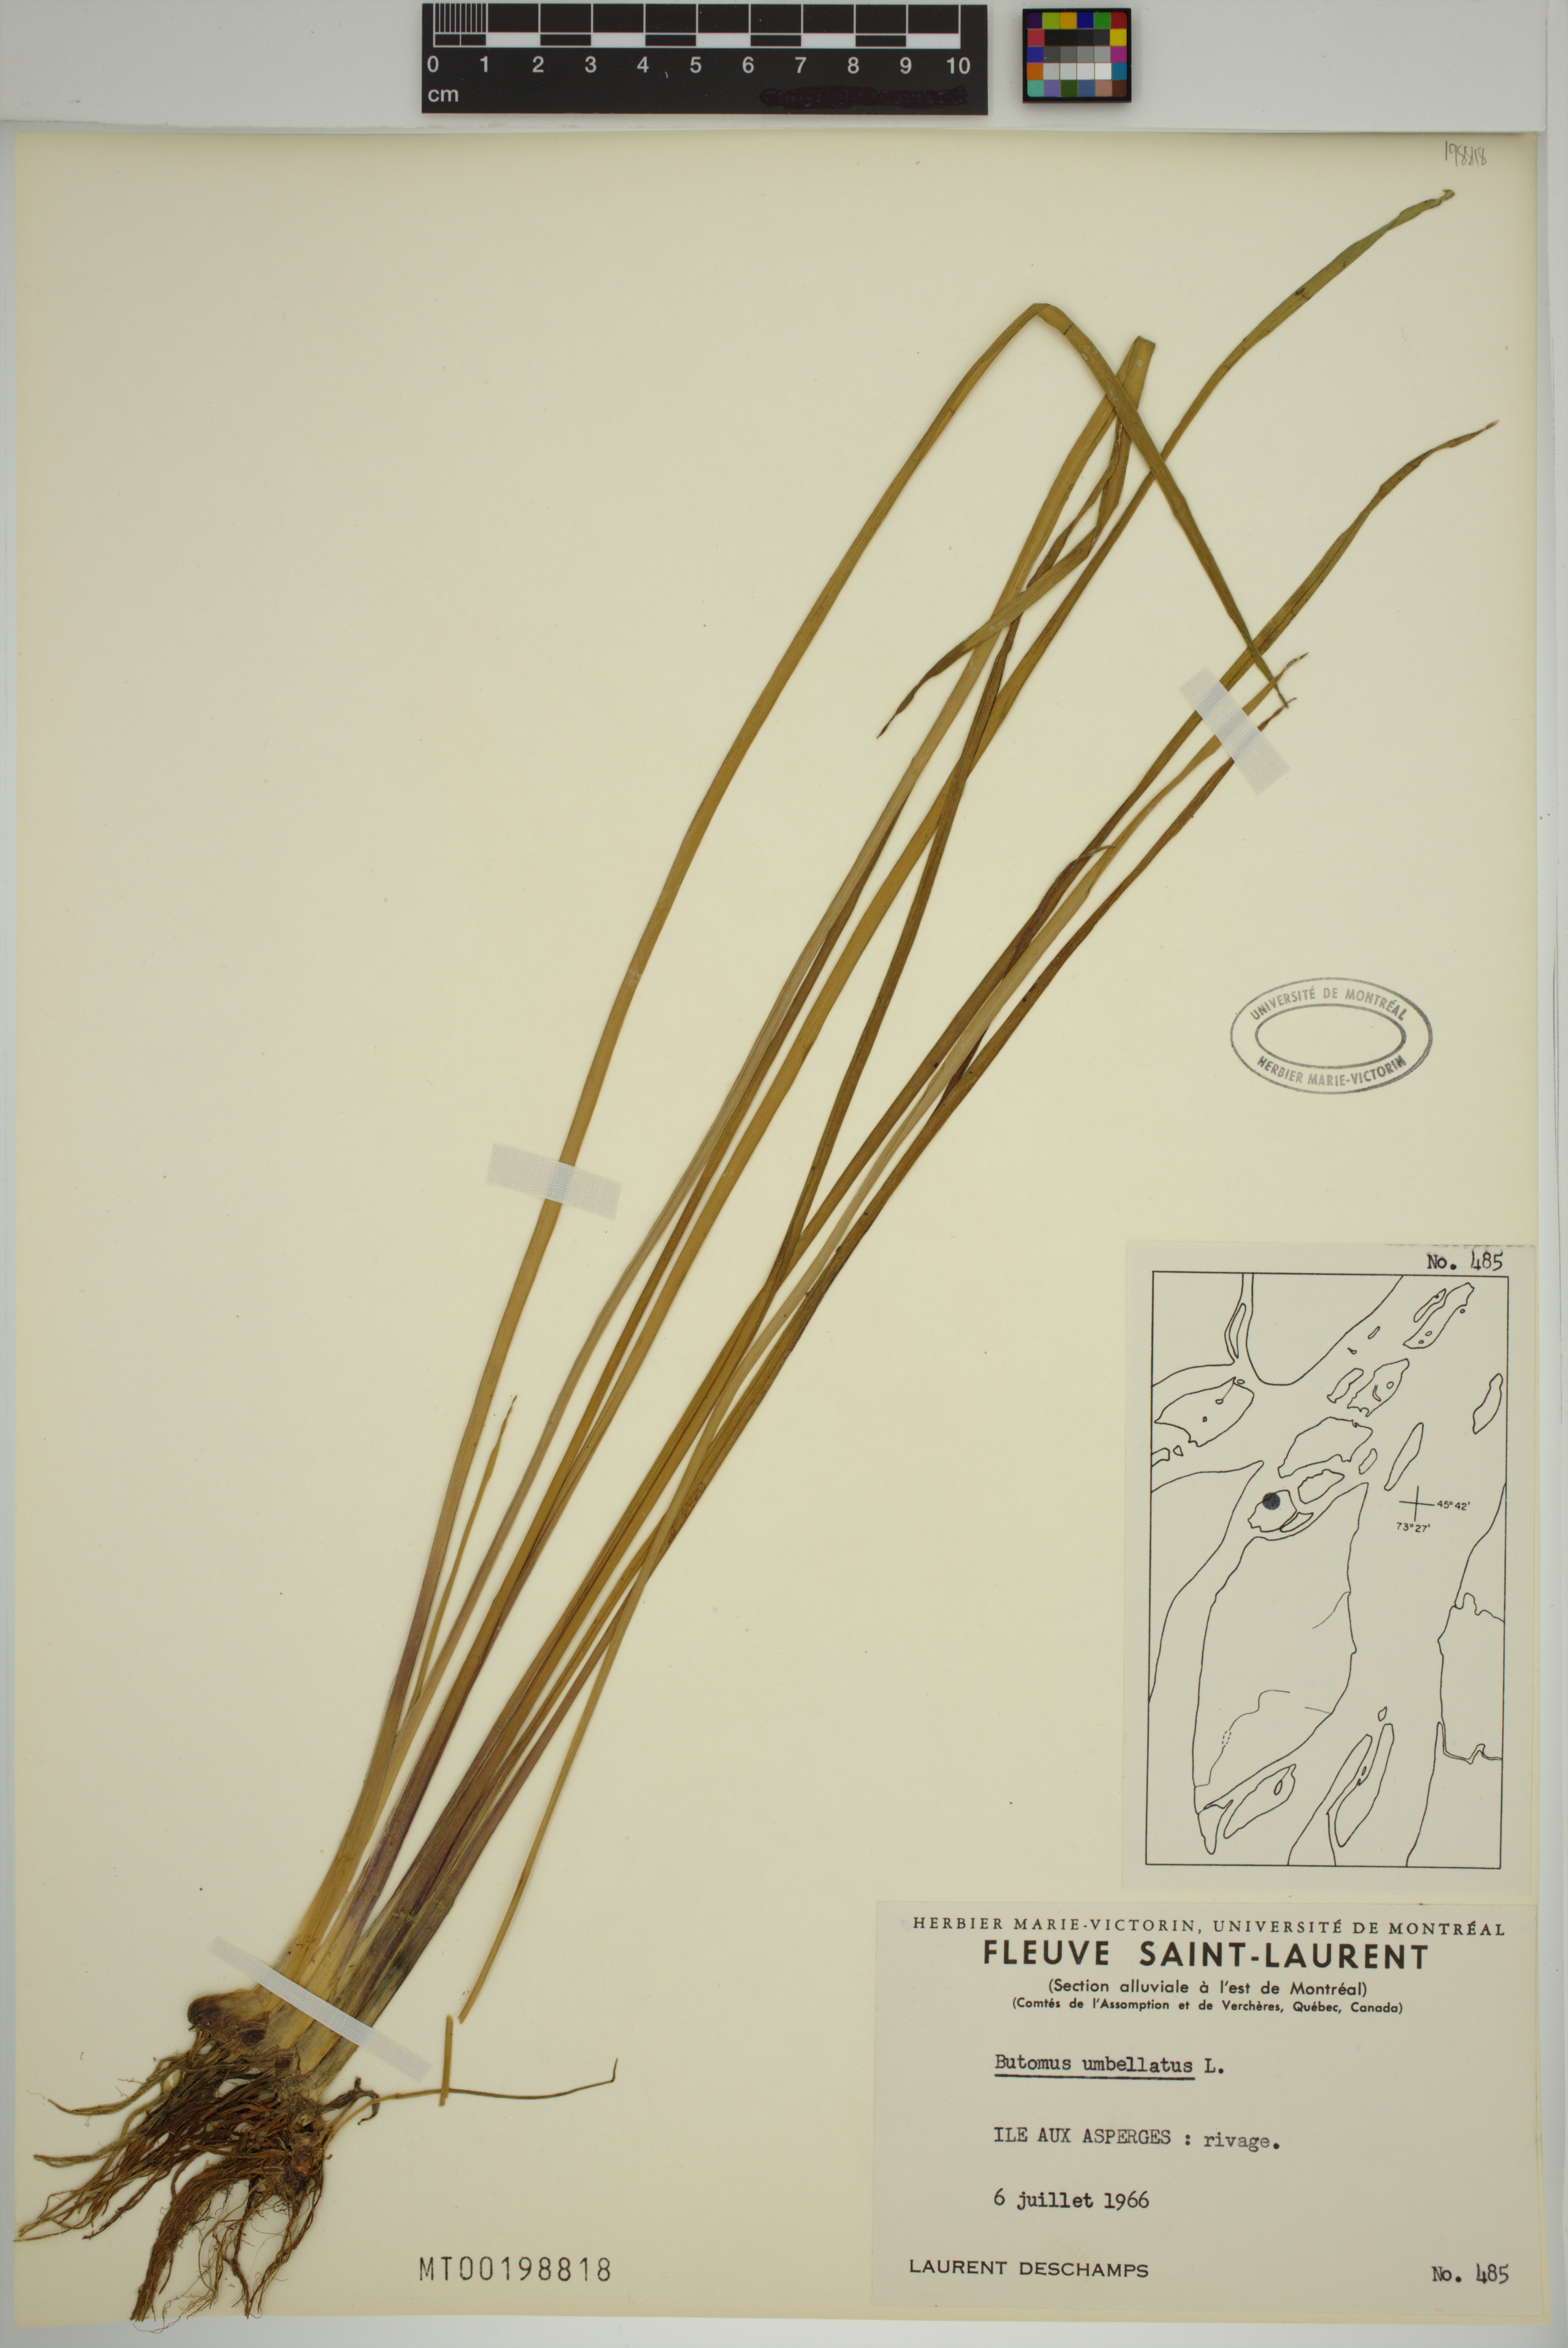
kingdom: Plantae
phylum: Tracheophyta
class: Liliopsida
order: Alismatales
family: Butomaceae
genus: Butomus
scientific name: Butomus umbellatus
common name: Flowering-rush
